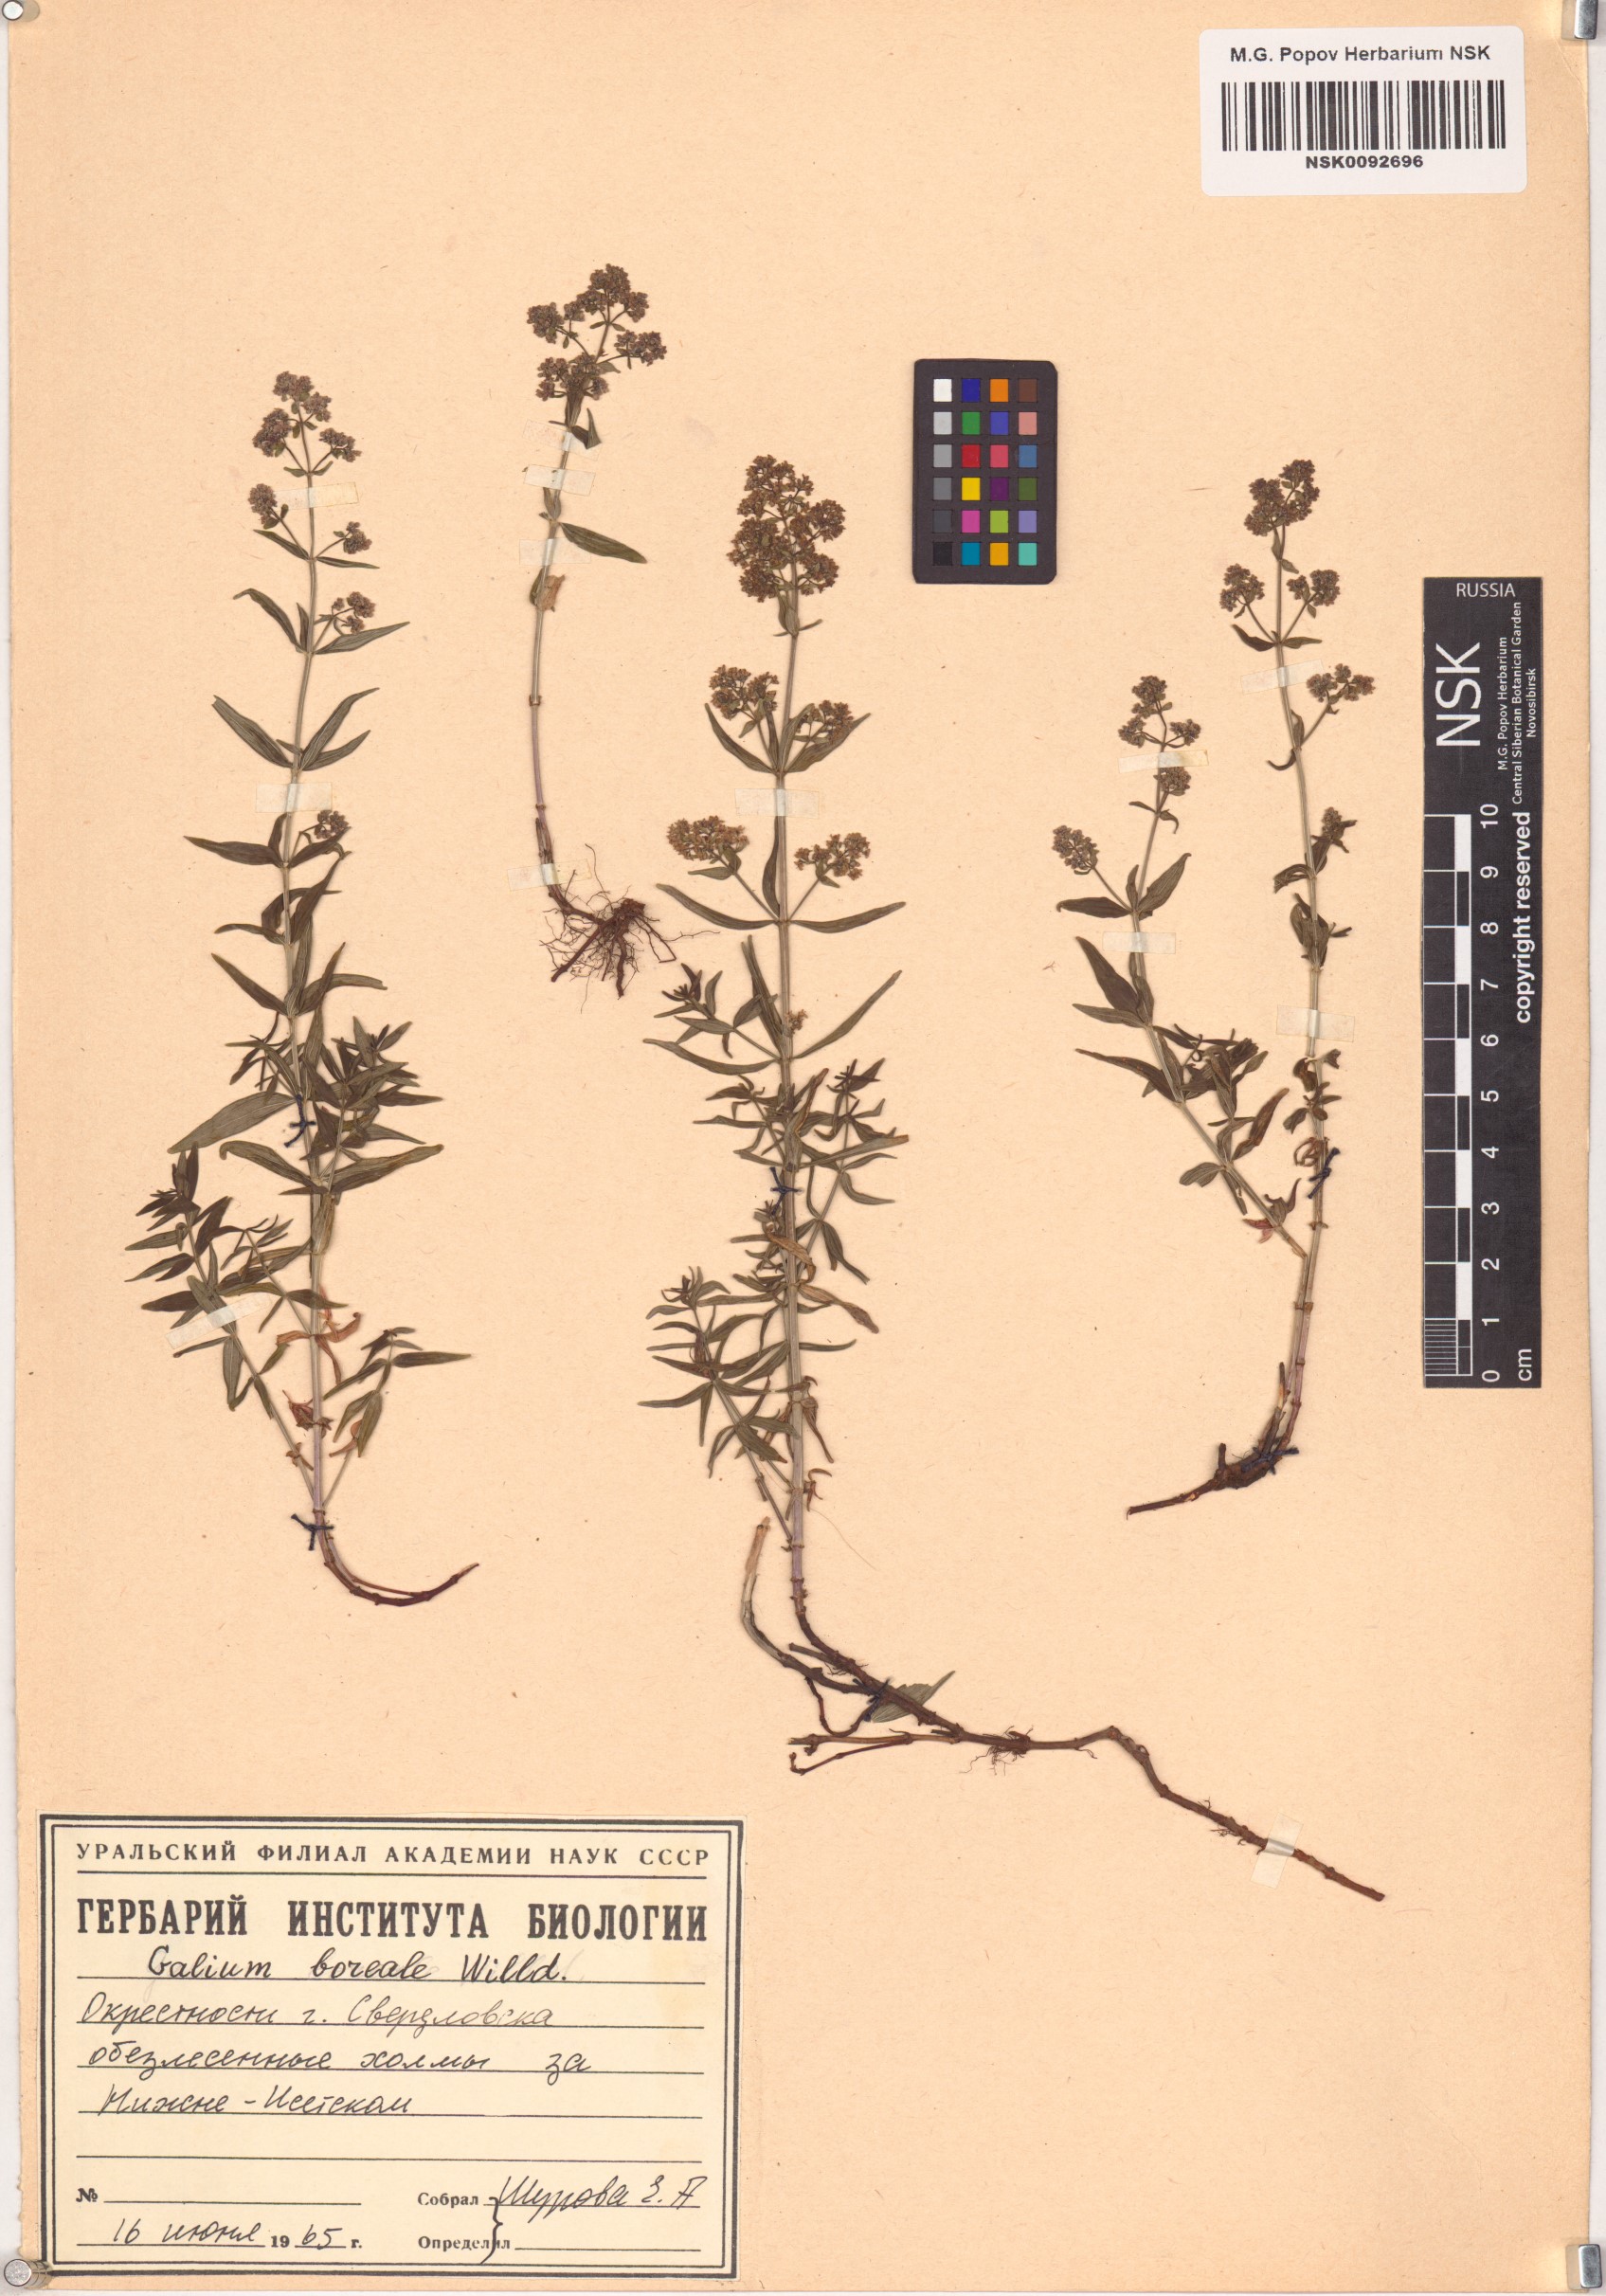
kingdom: Plantae
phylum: Tracheophyta
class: Magnoliopsida
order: Gentianales
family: Rubiaceae
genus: Galium
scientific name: Galium boreale
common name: Northern bedstraw
